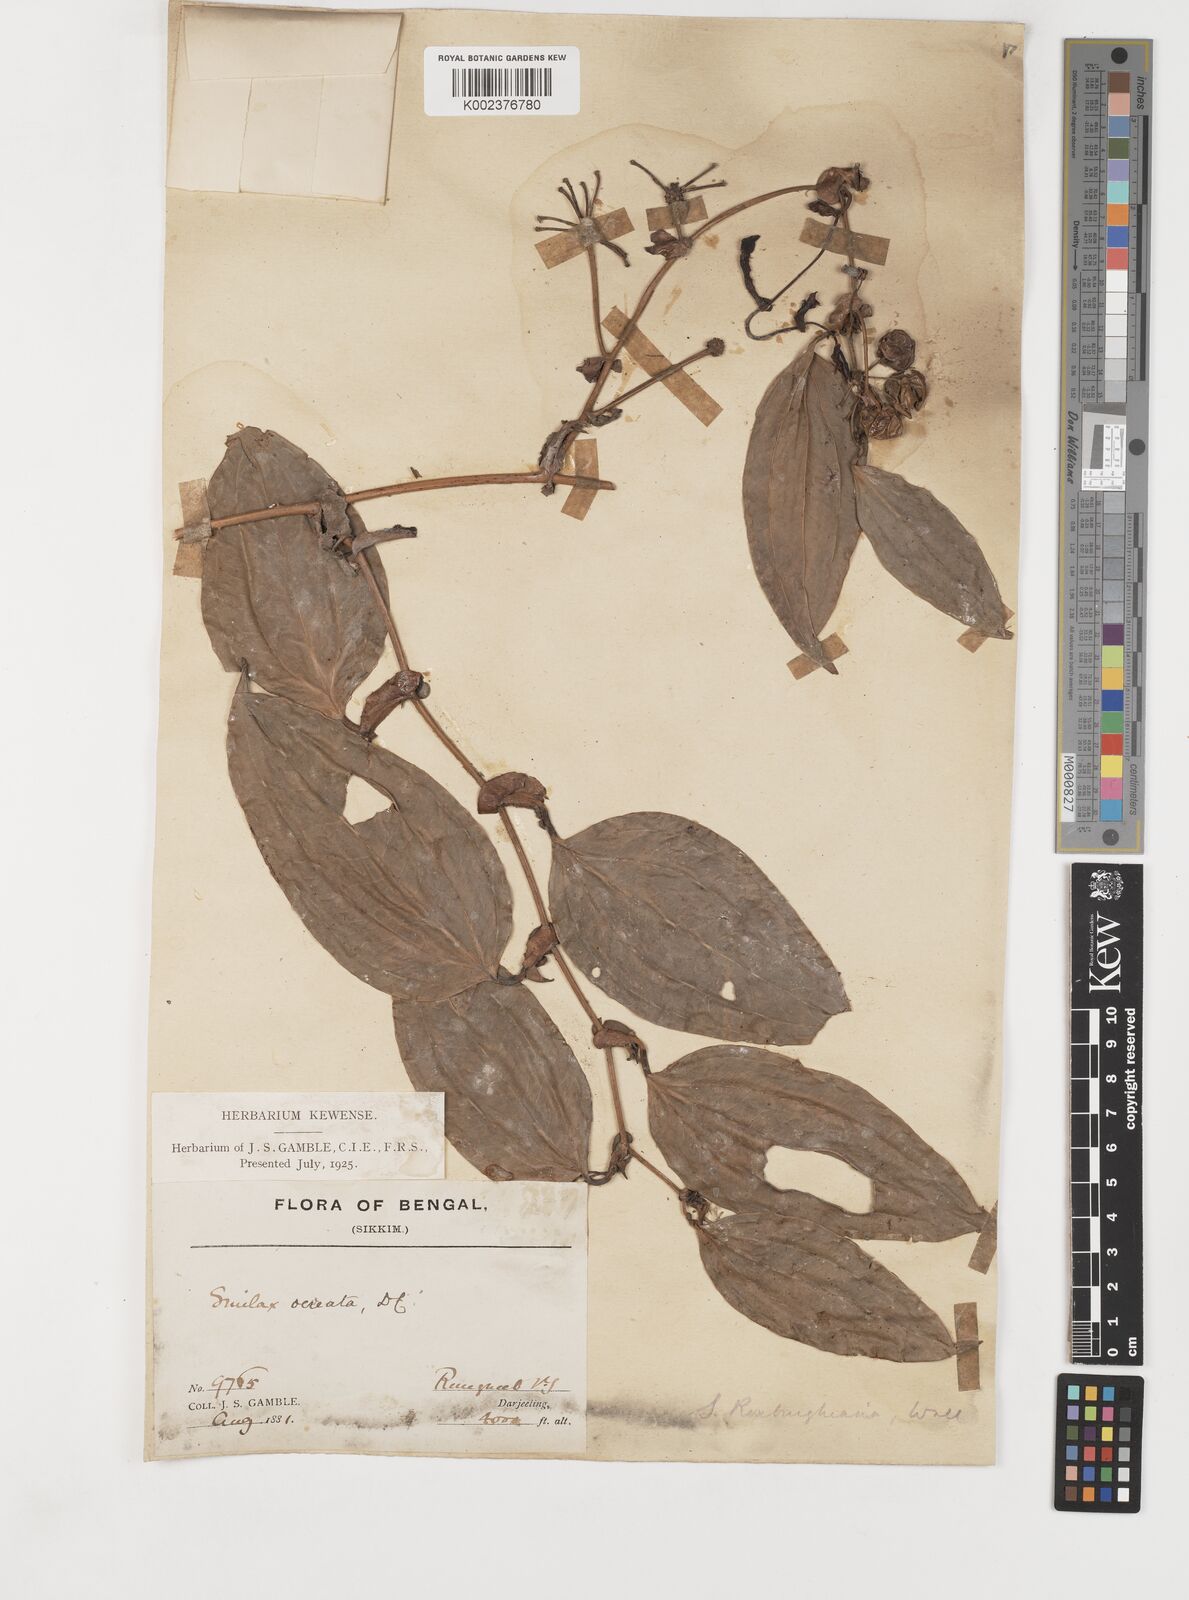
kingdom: Plantae
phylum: Tracheophyta
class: Liliopsida
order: Liliales
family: Smilacaceae
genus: Smilax
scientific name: Smilax ocreata
